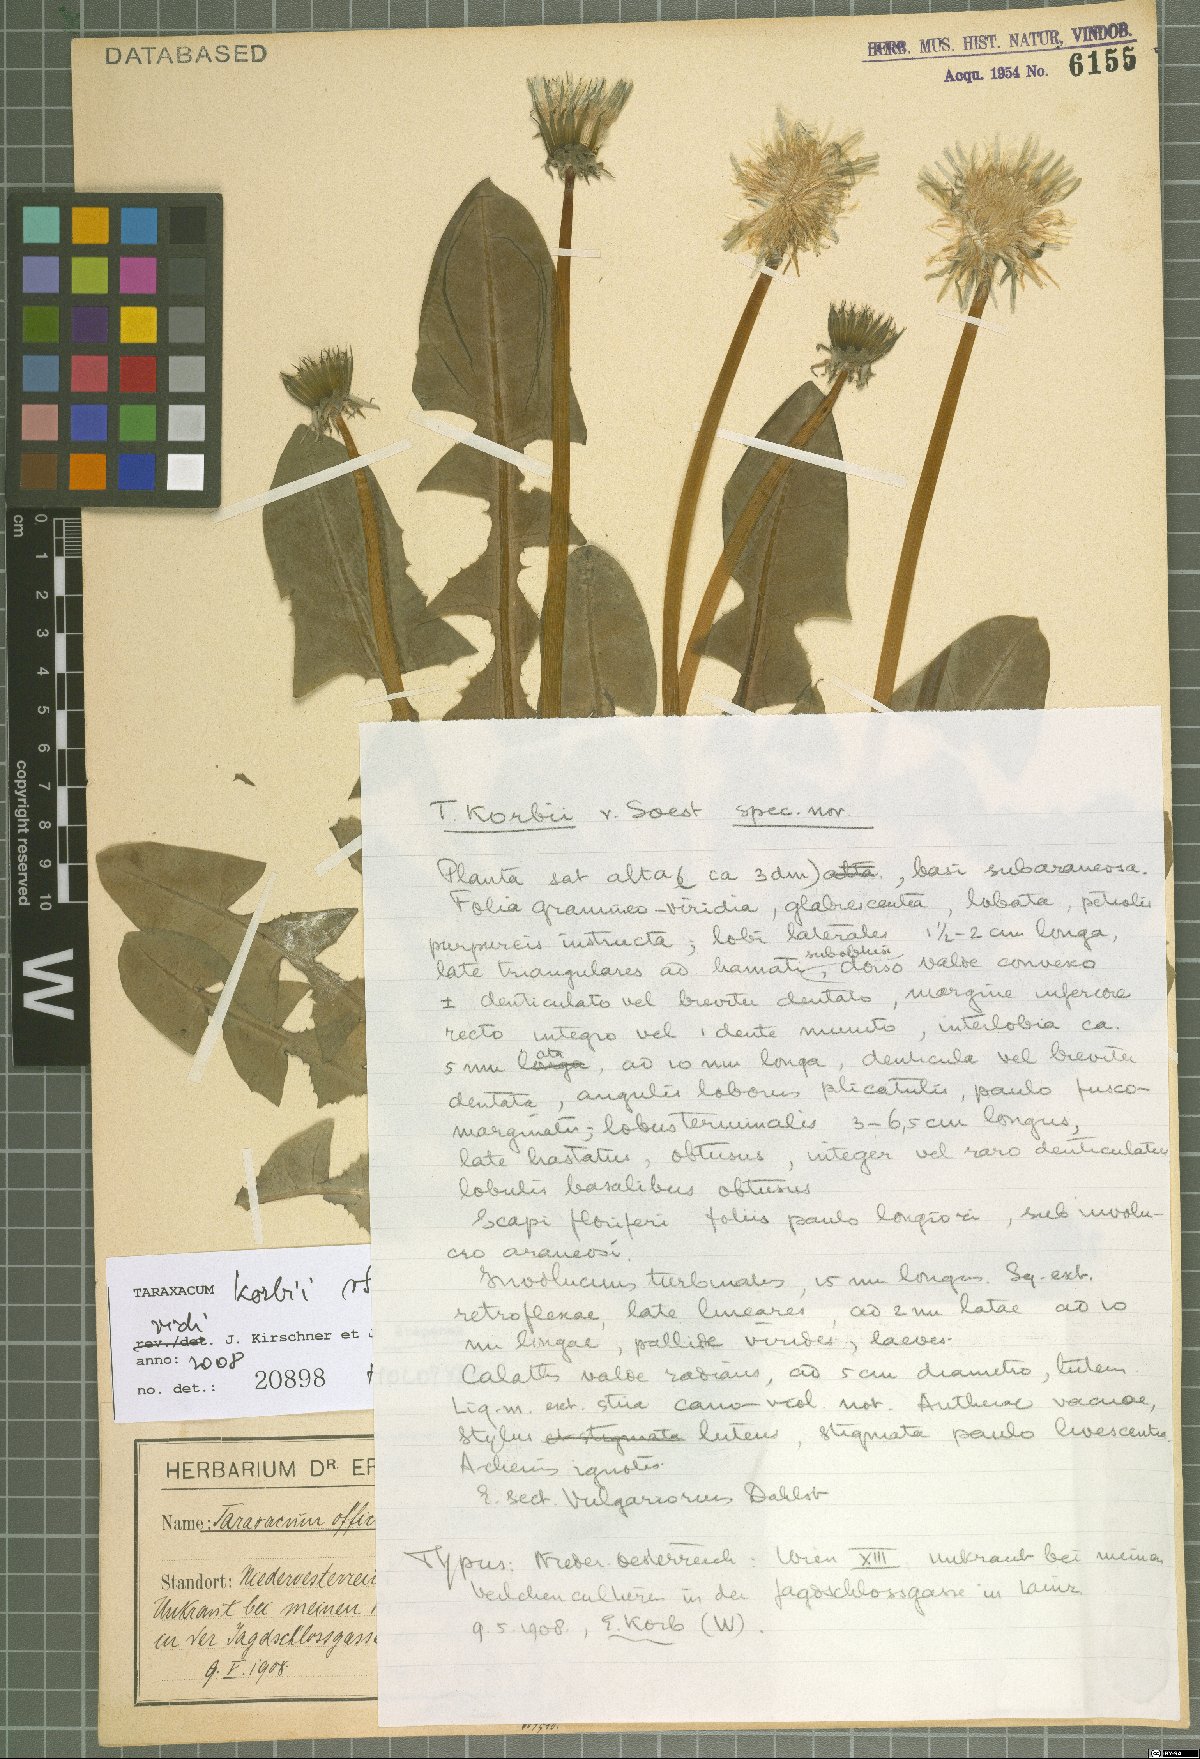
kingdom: Plantae
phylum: Tracheophyta
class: Magnoliopsida
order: Asterales
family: Asteraceae
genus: Taraxacum
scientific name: Taraxacum korbii
